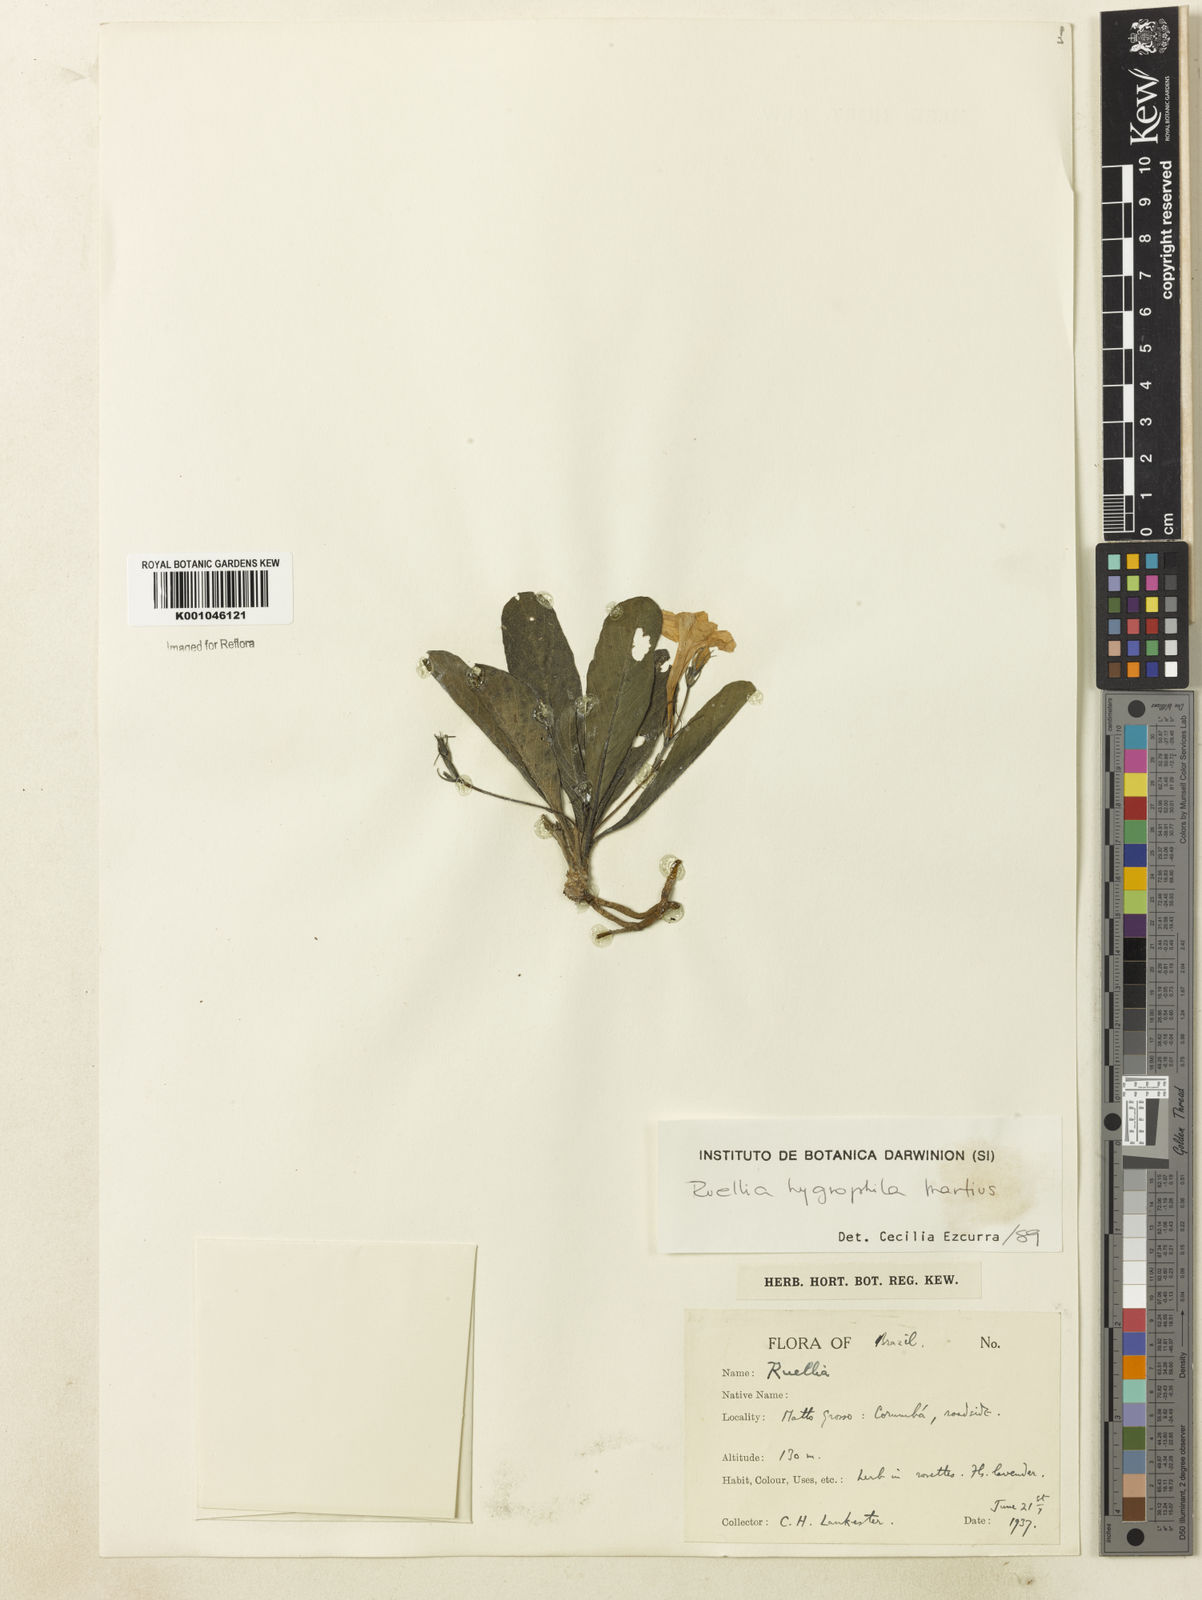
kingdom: Plantae
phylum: Tracheophyta
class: Magnoliopsida
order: Lamiales
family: Acanthaceae
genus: Ruellia
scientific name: Ruellia hygrophila
